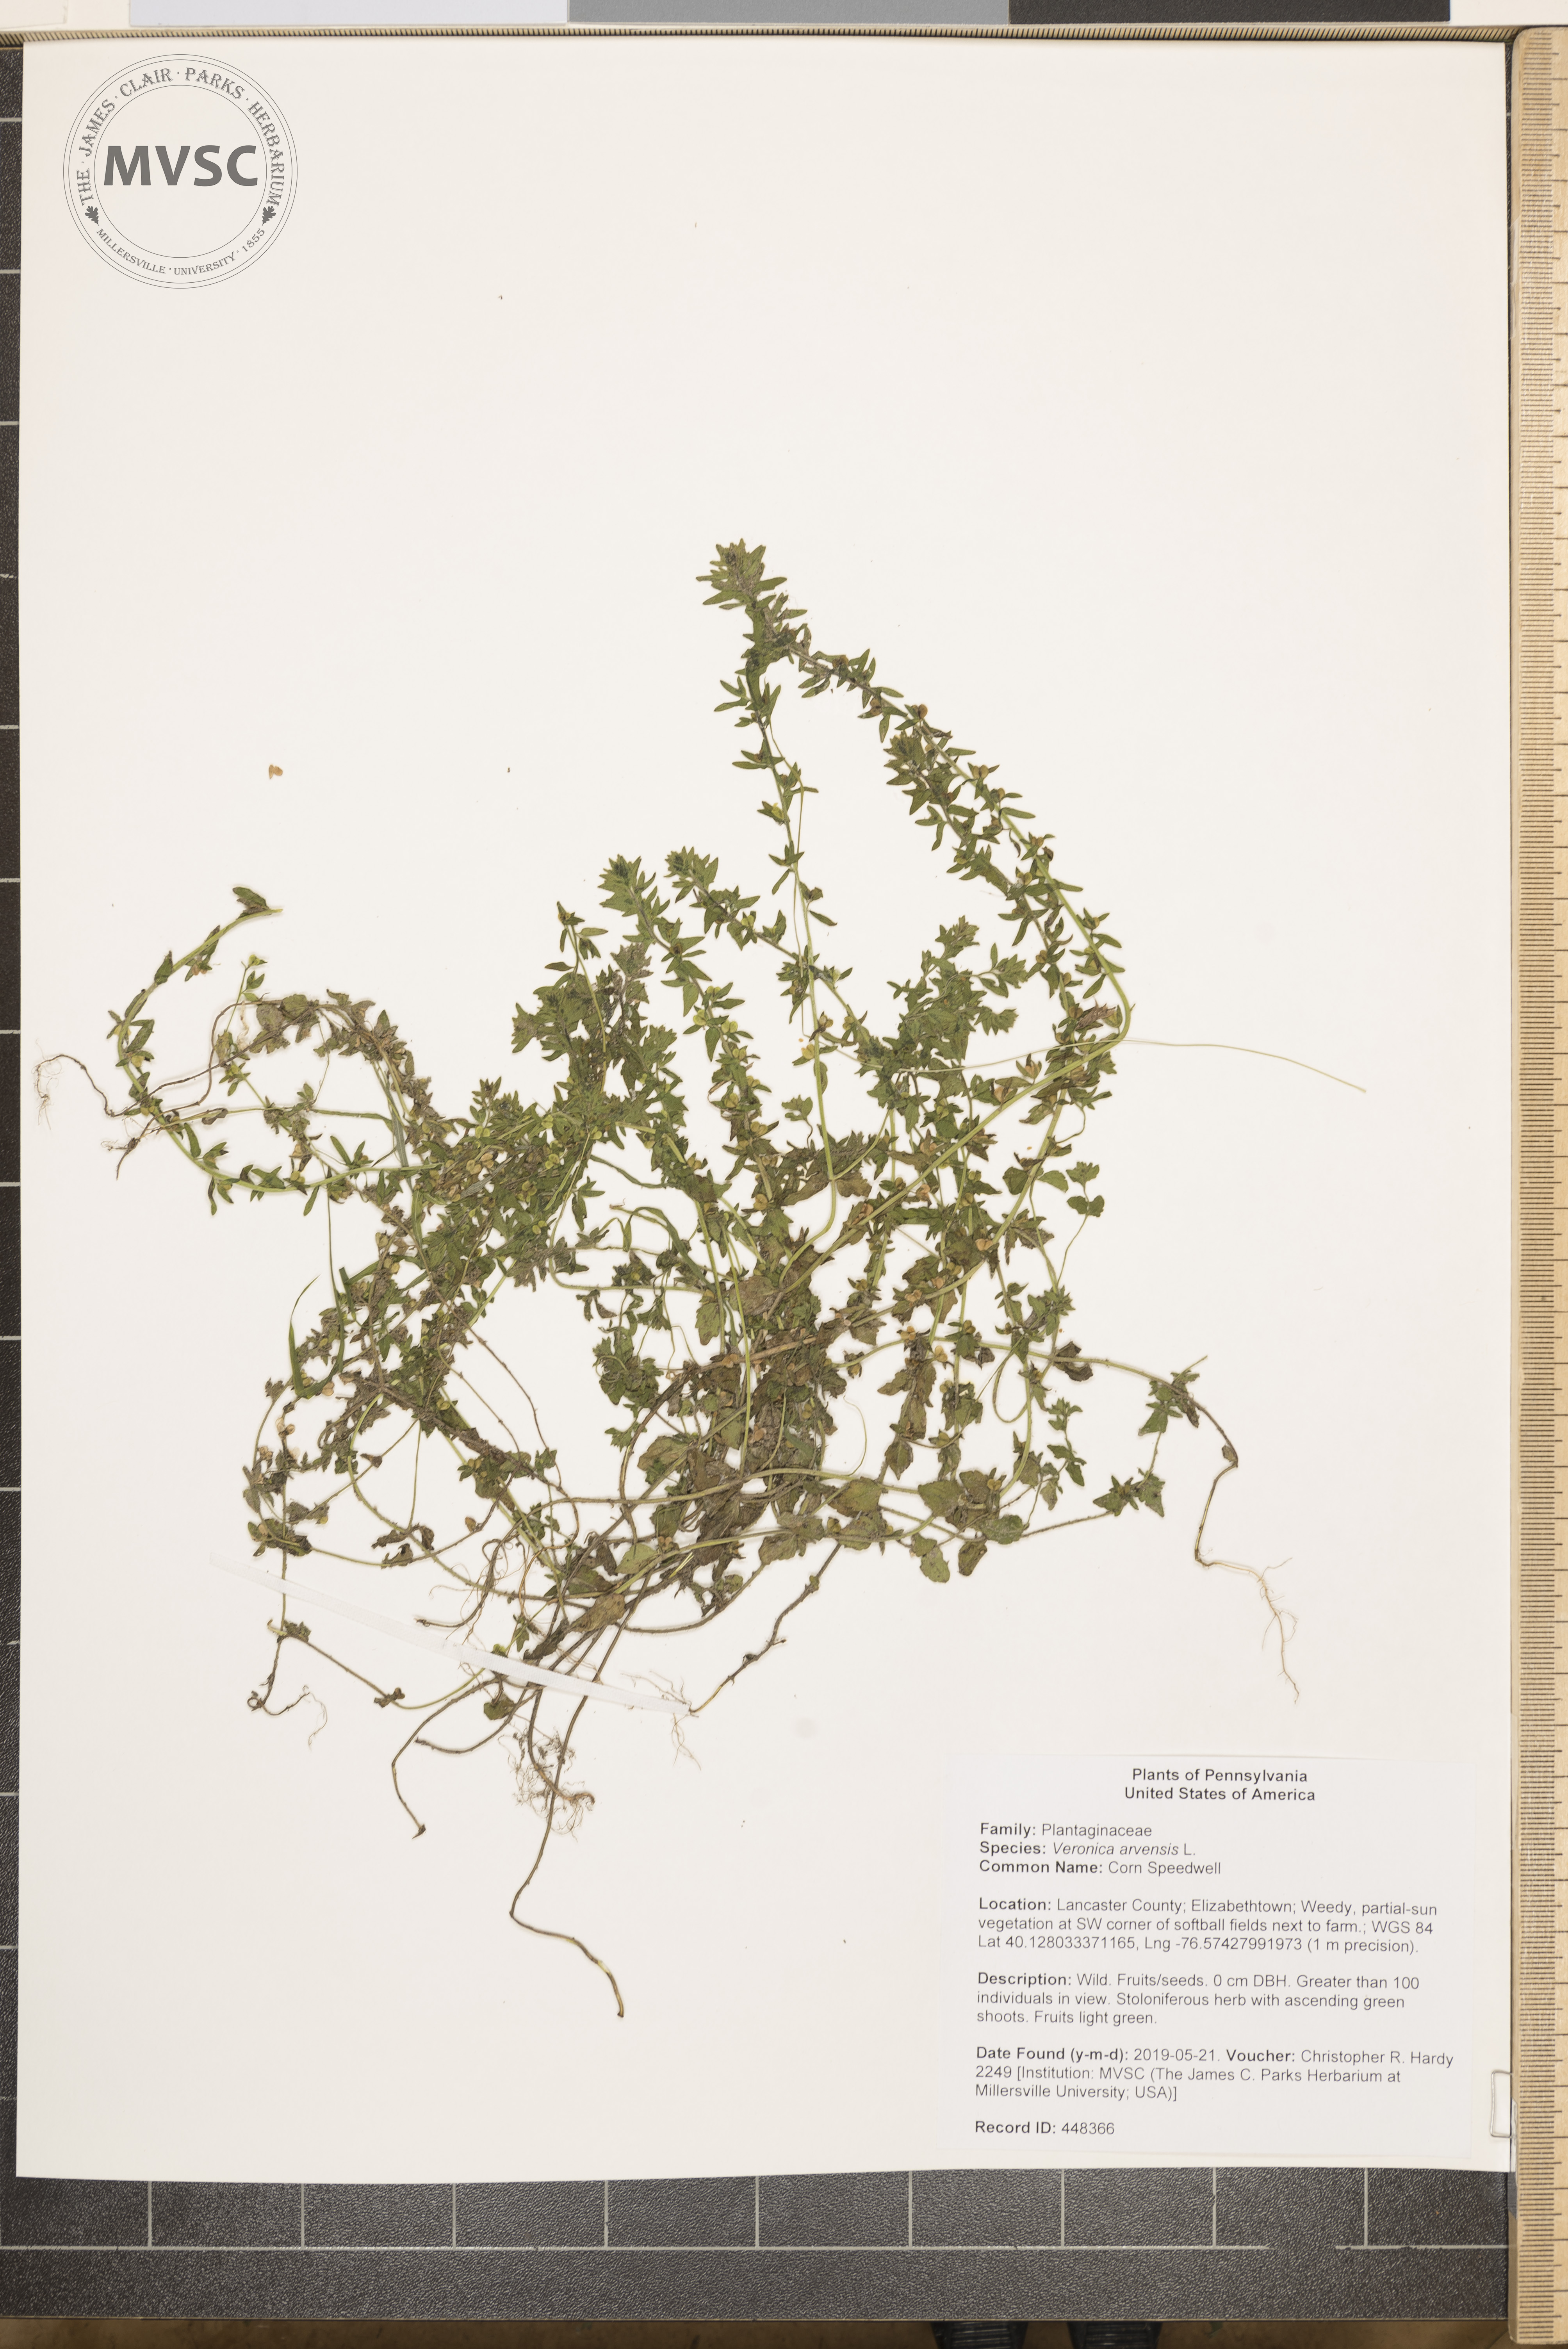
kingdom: Plantae
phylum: Tracheophyta
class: Magnoliopsida
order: Lamiales
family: Plantaginaceae
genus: Veronica
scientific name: Veronica arvensis
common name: Corn Speedwell
